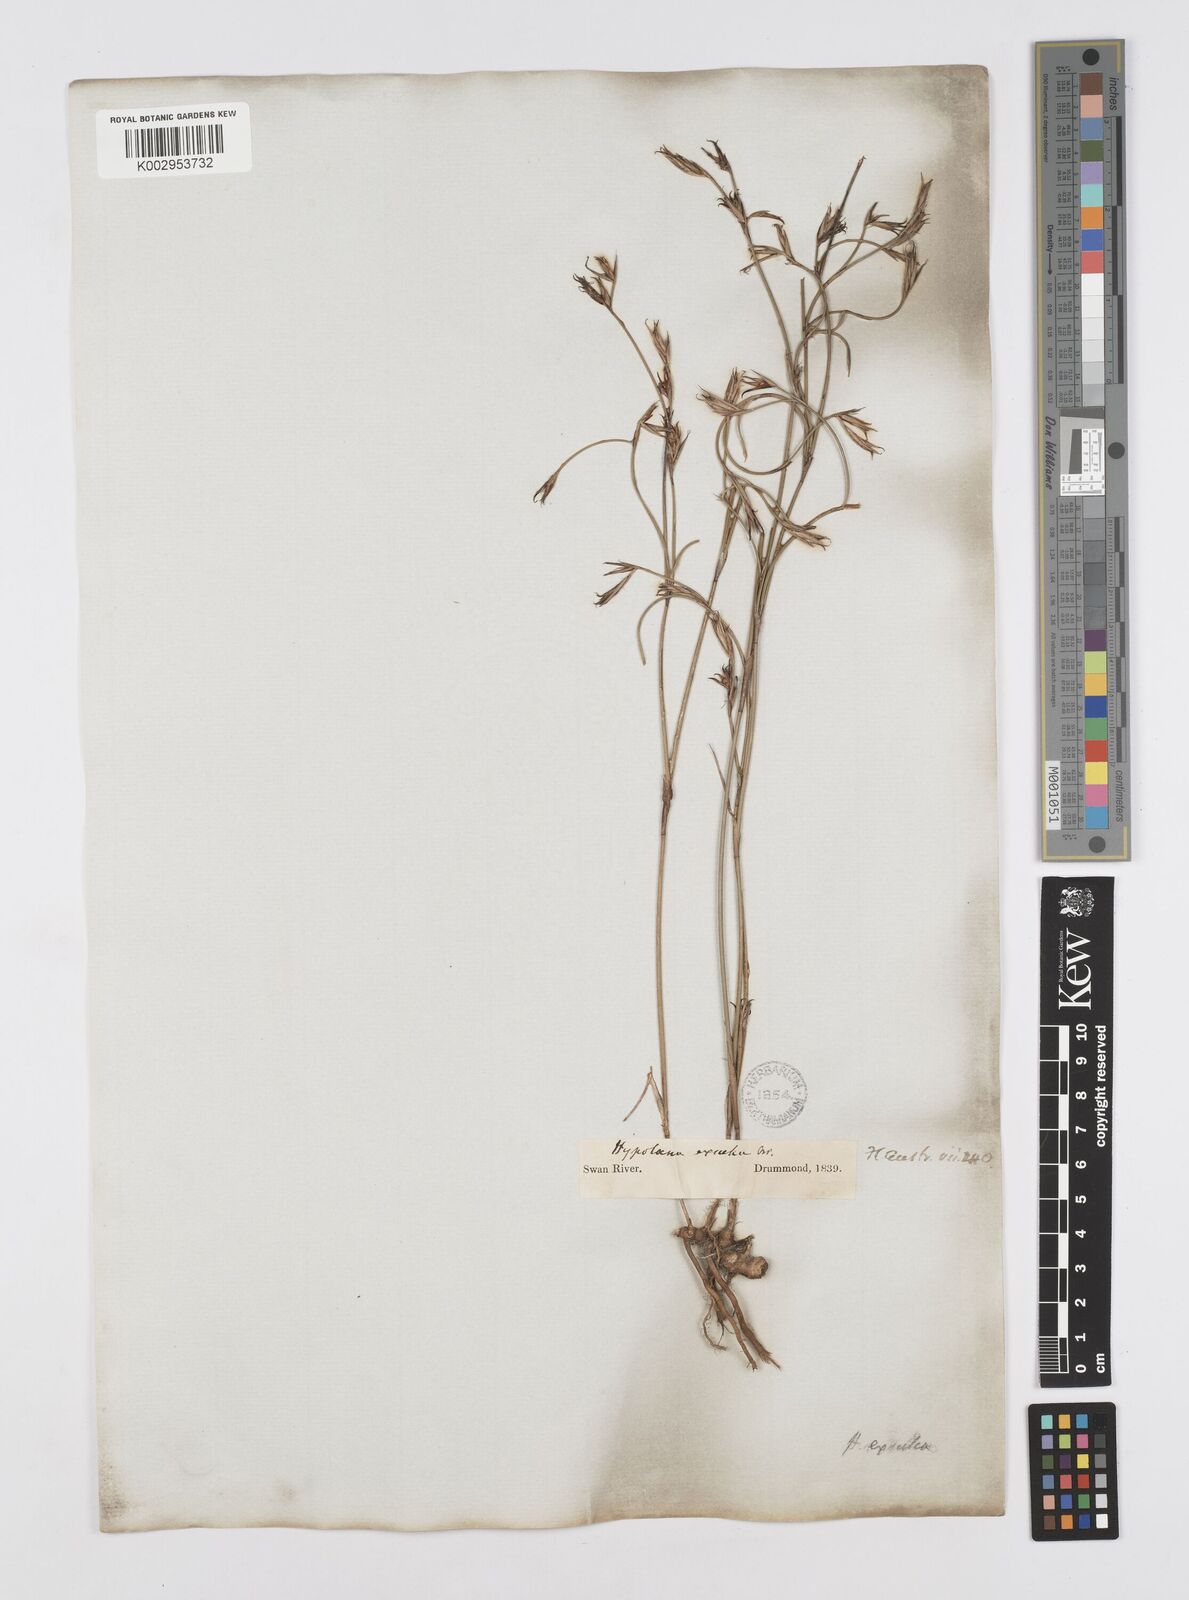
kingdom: Plantae
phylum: Tracheophyta
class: Liliopsida
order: Poales
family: Restionaceae
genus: Hypolaena
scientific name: Hypolaena exsulca
